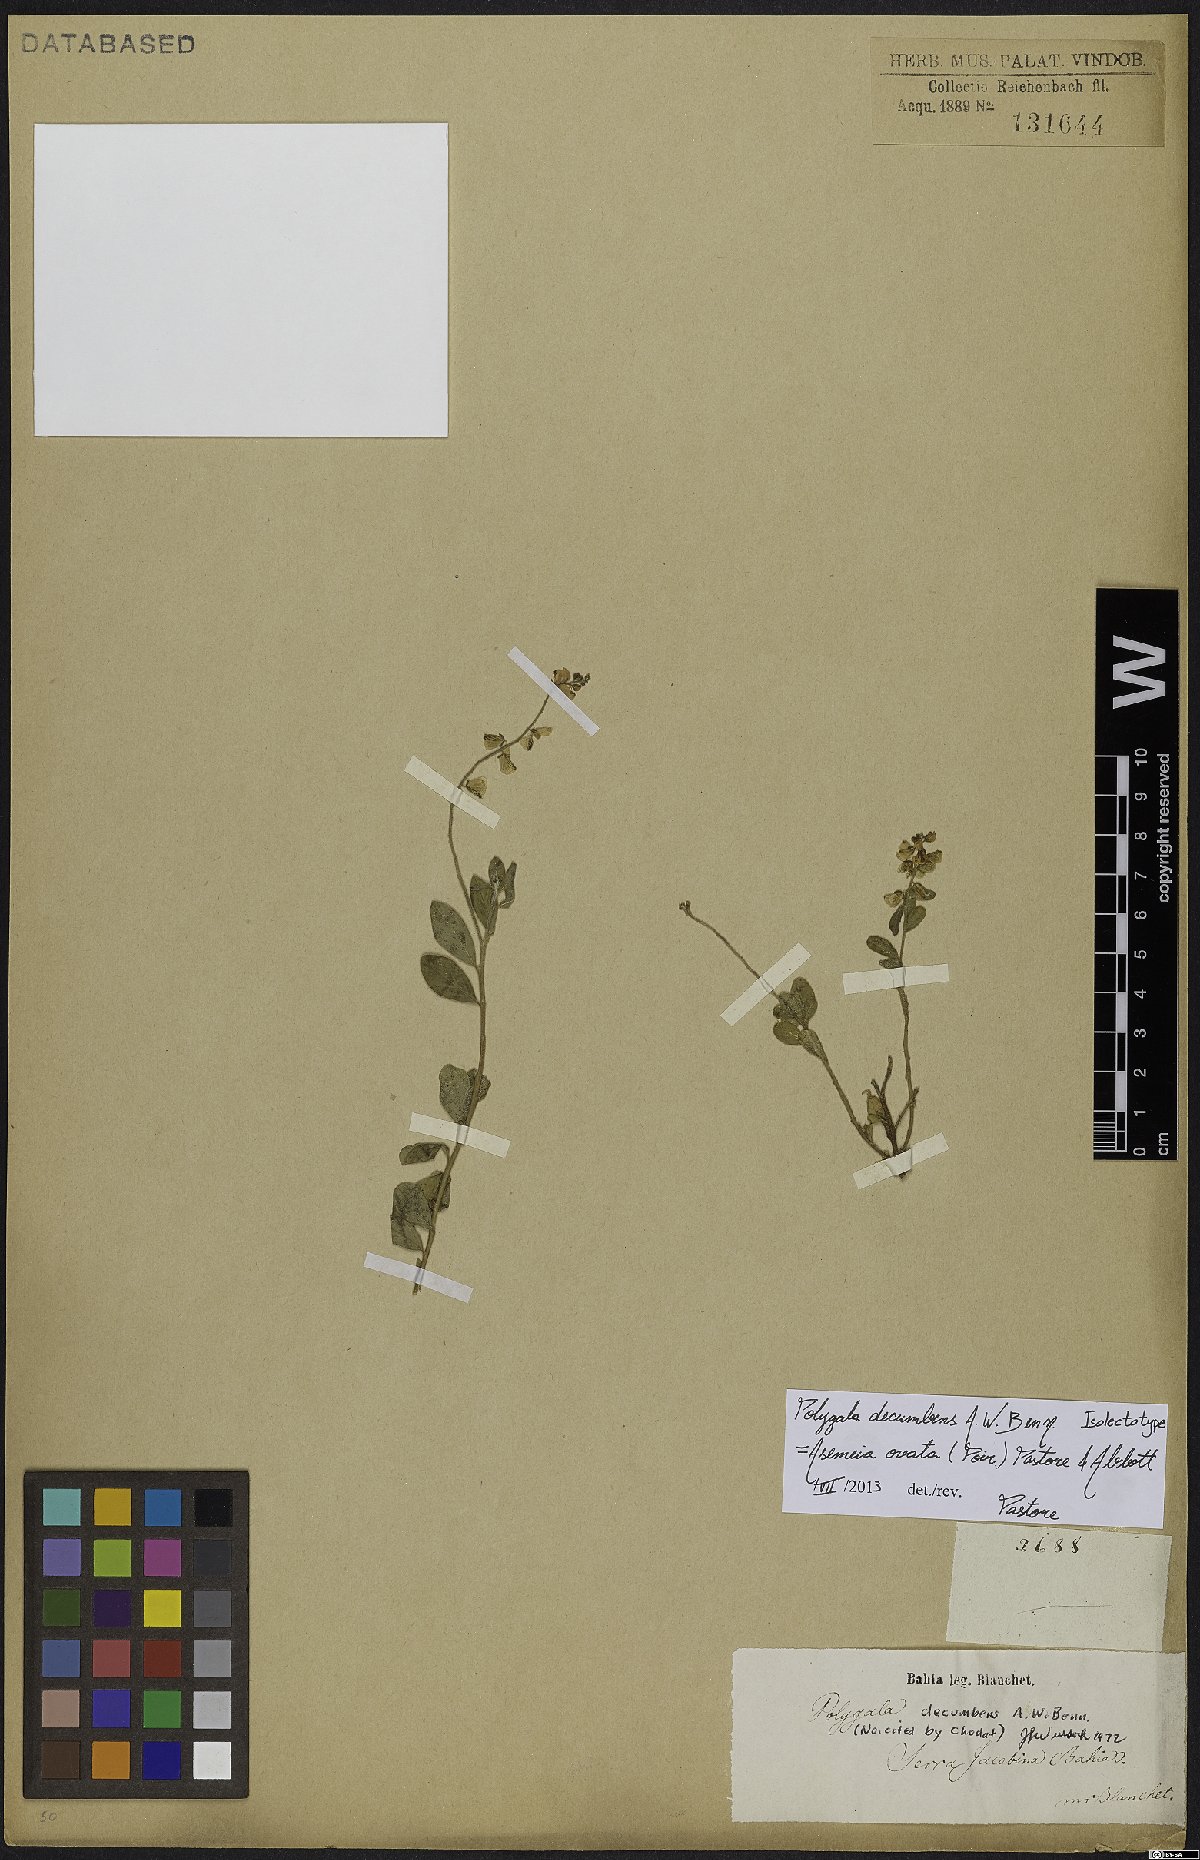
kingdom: Plantae
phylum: Tracheophyta
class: Magnoliopsida
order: Fabales
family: Polygalaceae
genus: Asemeia
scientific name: Asemeia ovata
